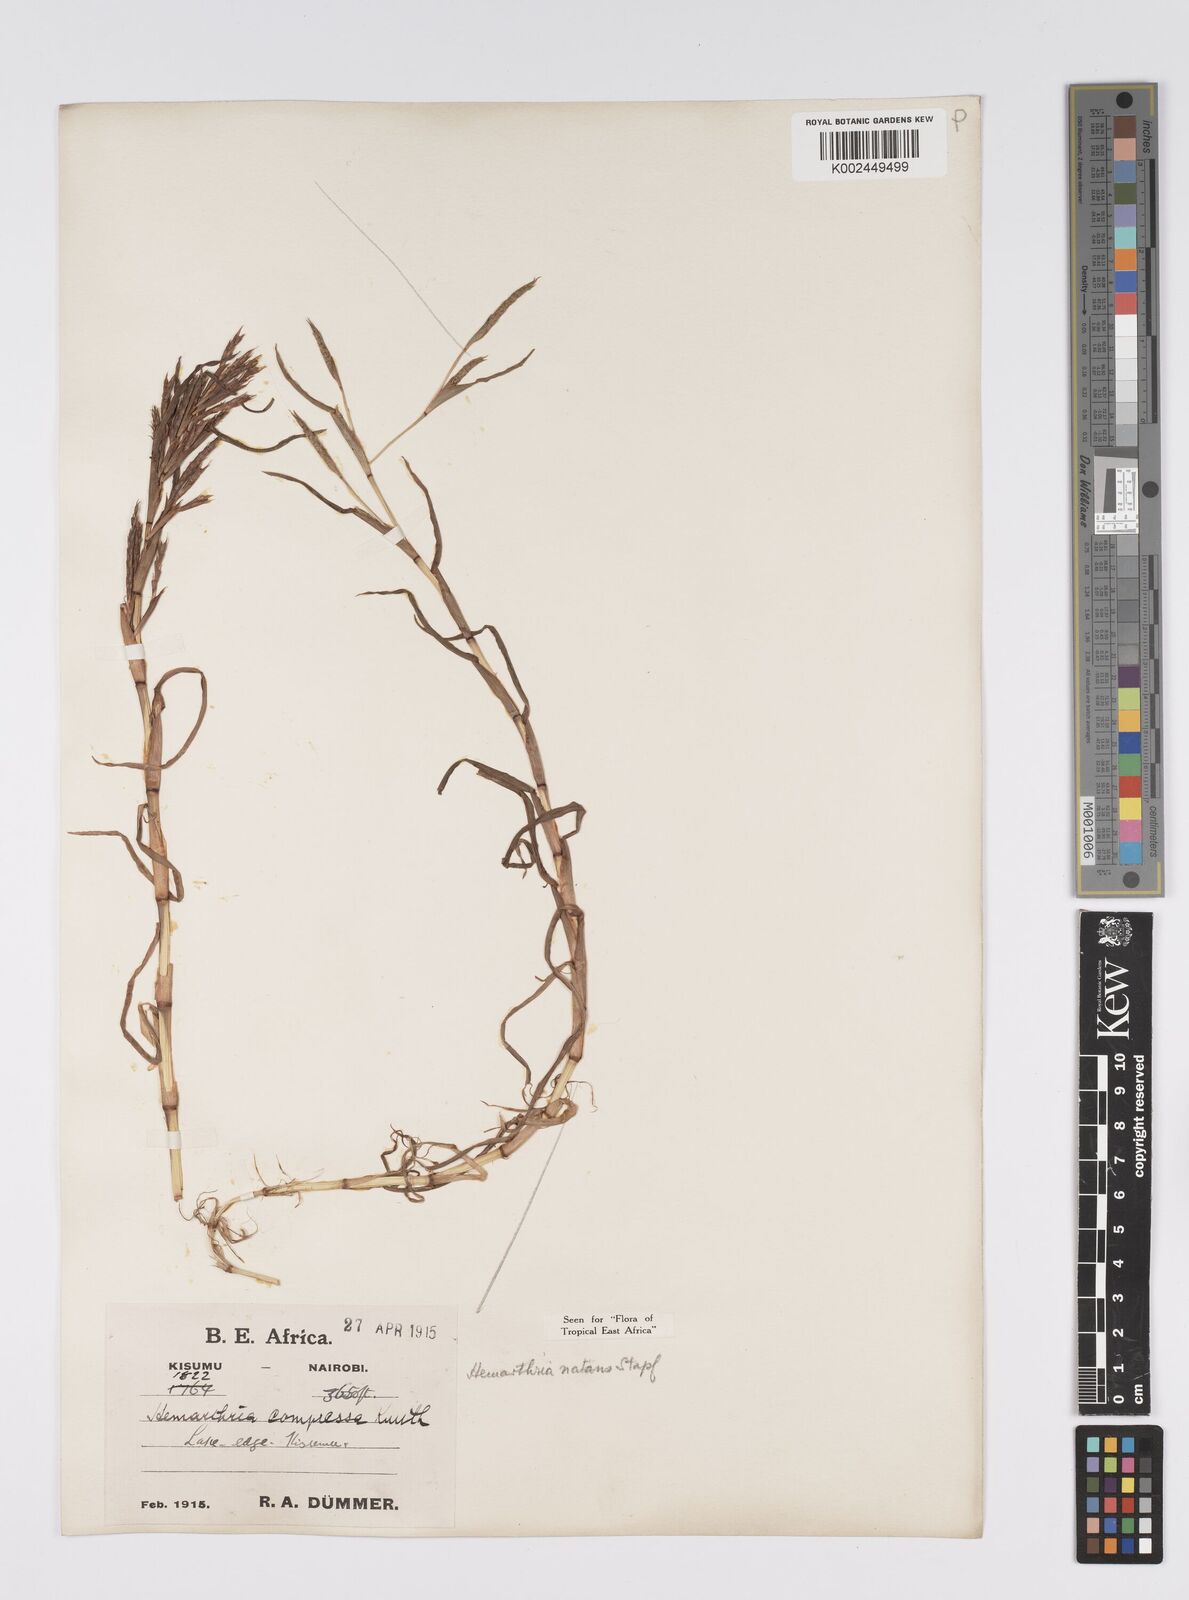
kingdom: Plantae
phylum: Tracheophyta
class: Liliopsida
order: Poales
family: Poaceae
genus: Hemarthria
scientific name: Hemarthria natans
